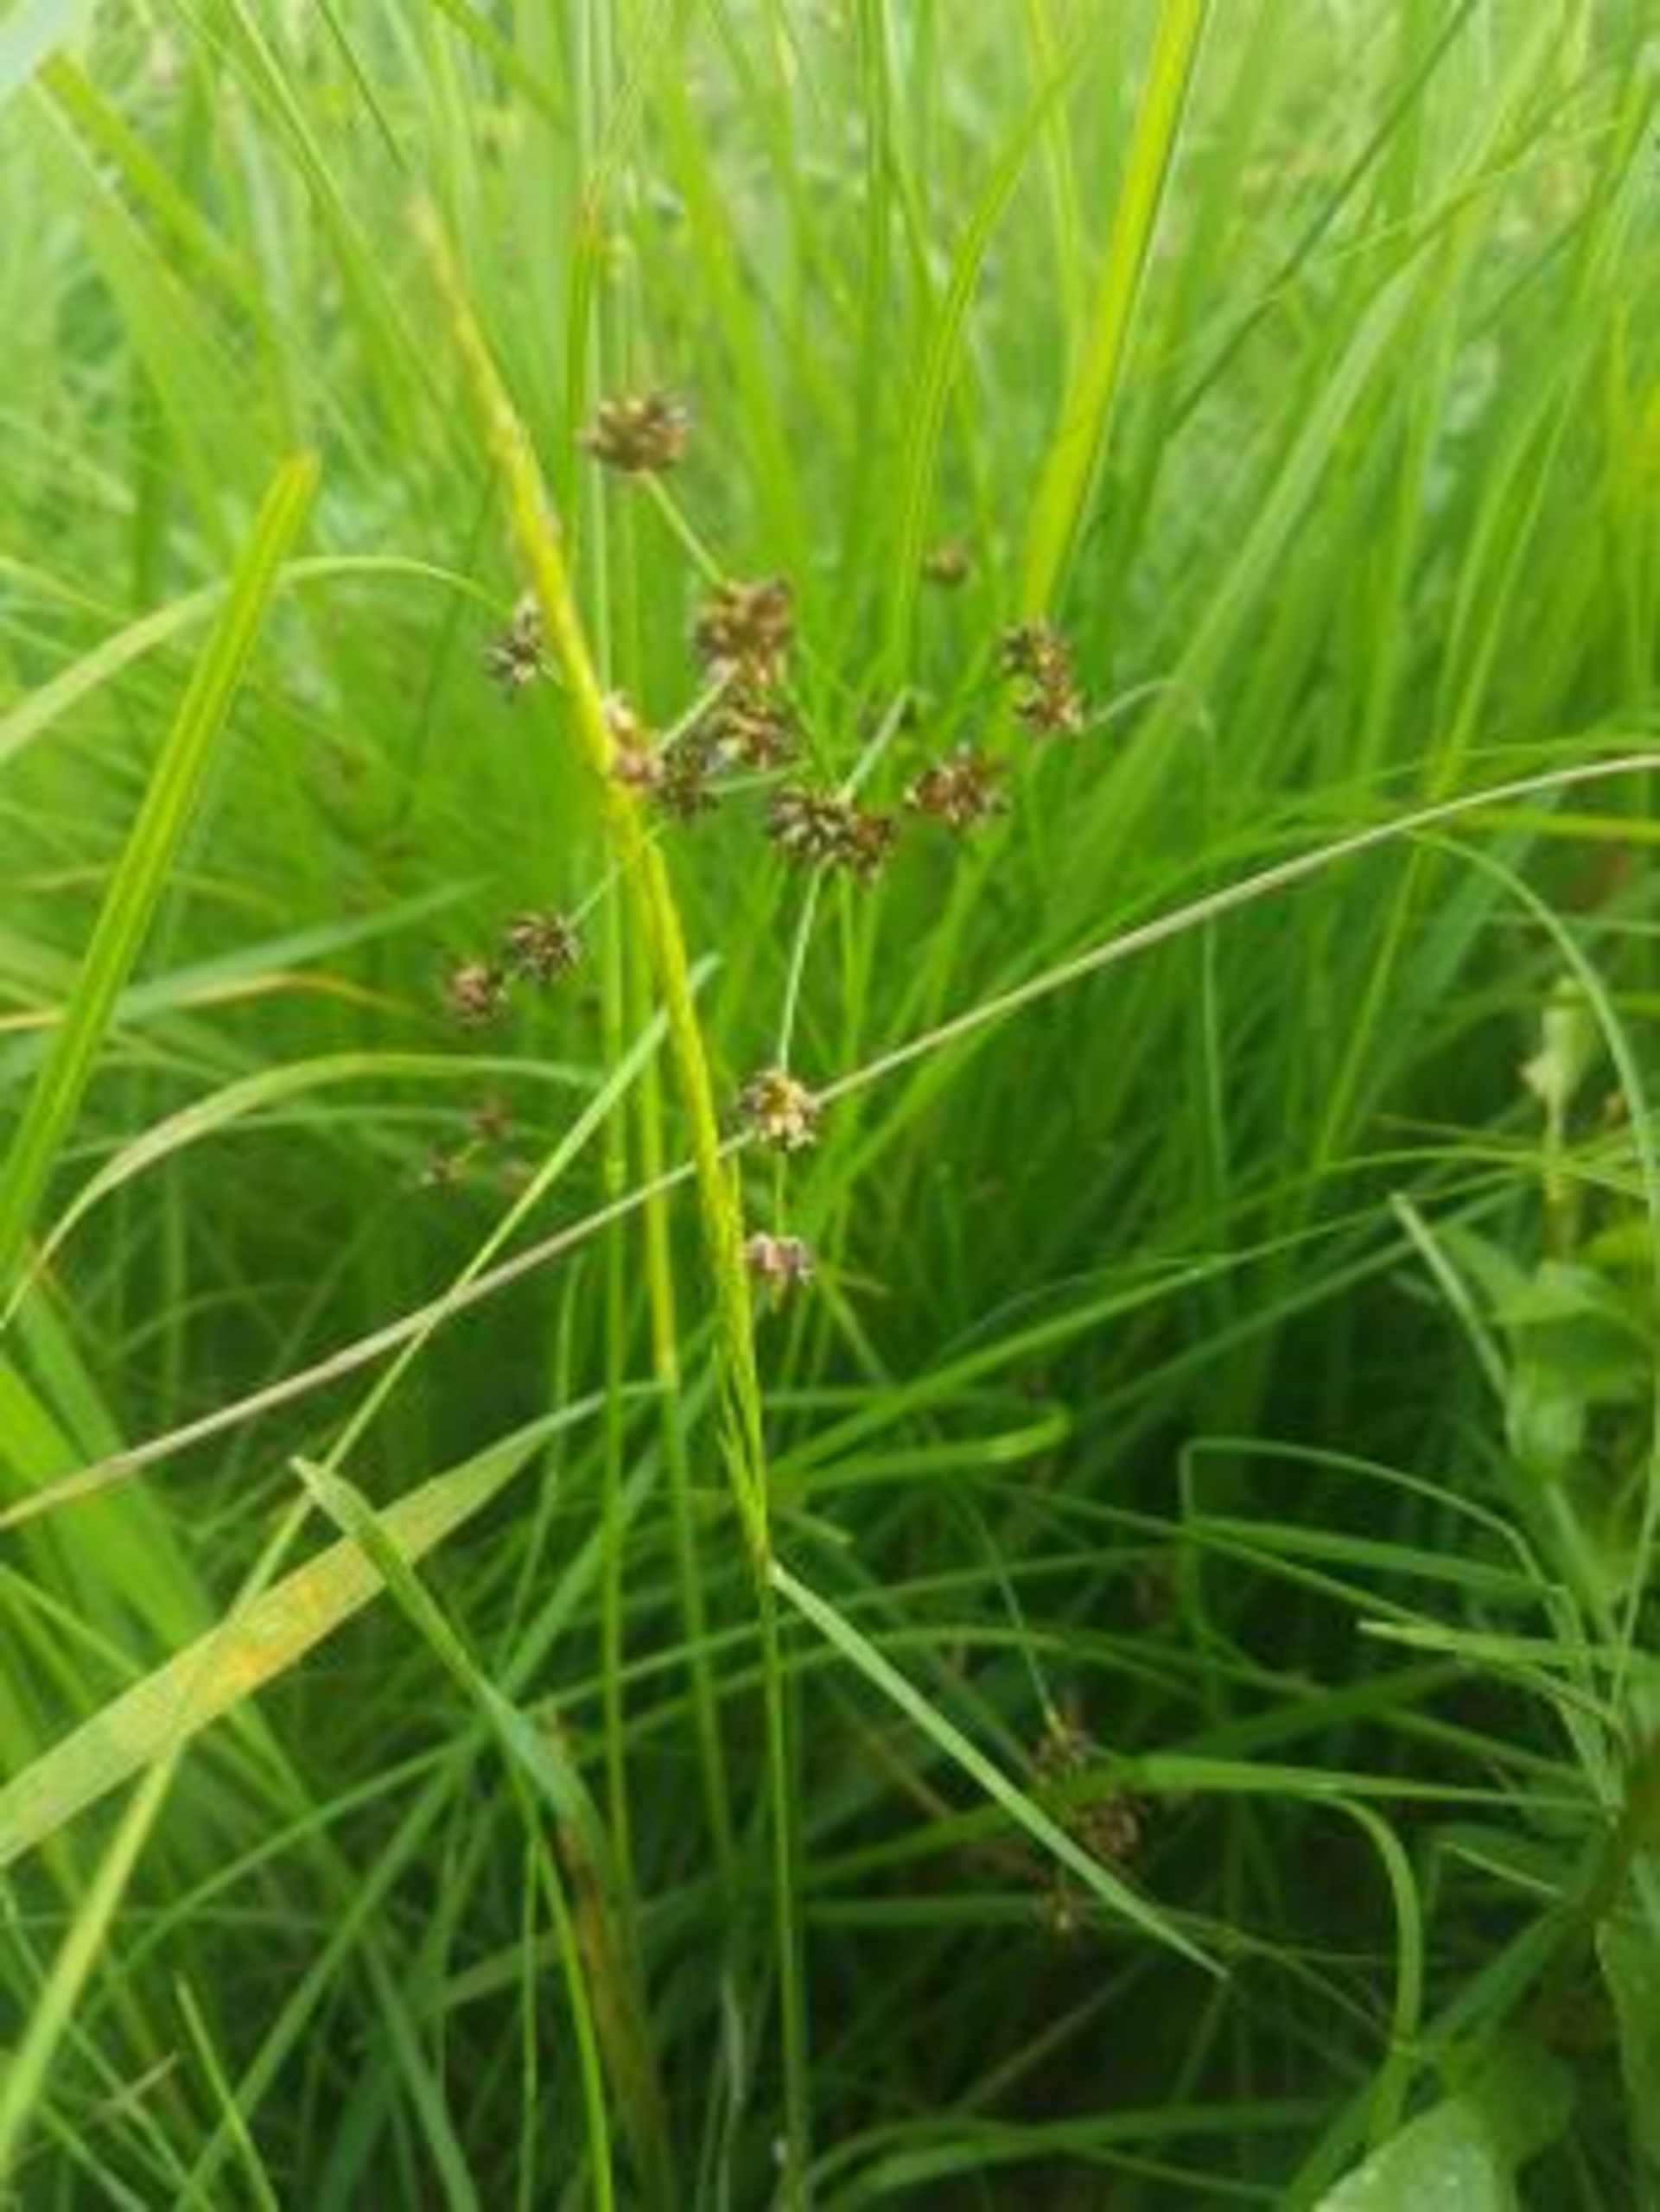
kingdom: Plantae
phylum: Tracheophyta
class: Liliopsida
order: Poales
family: Juncaceae
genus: Juncus
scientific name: Juncus articulatus
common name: Glanskapslet siv
